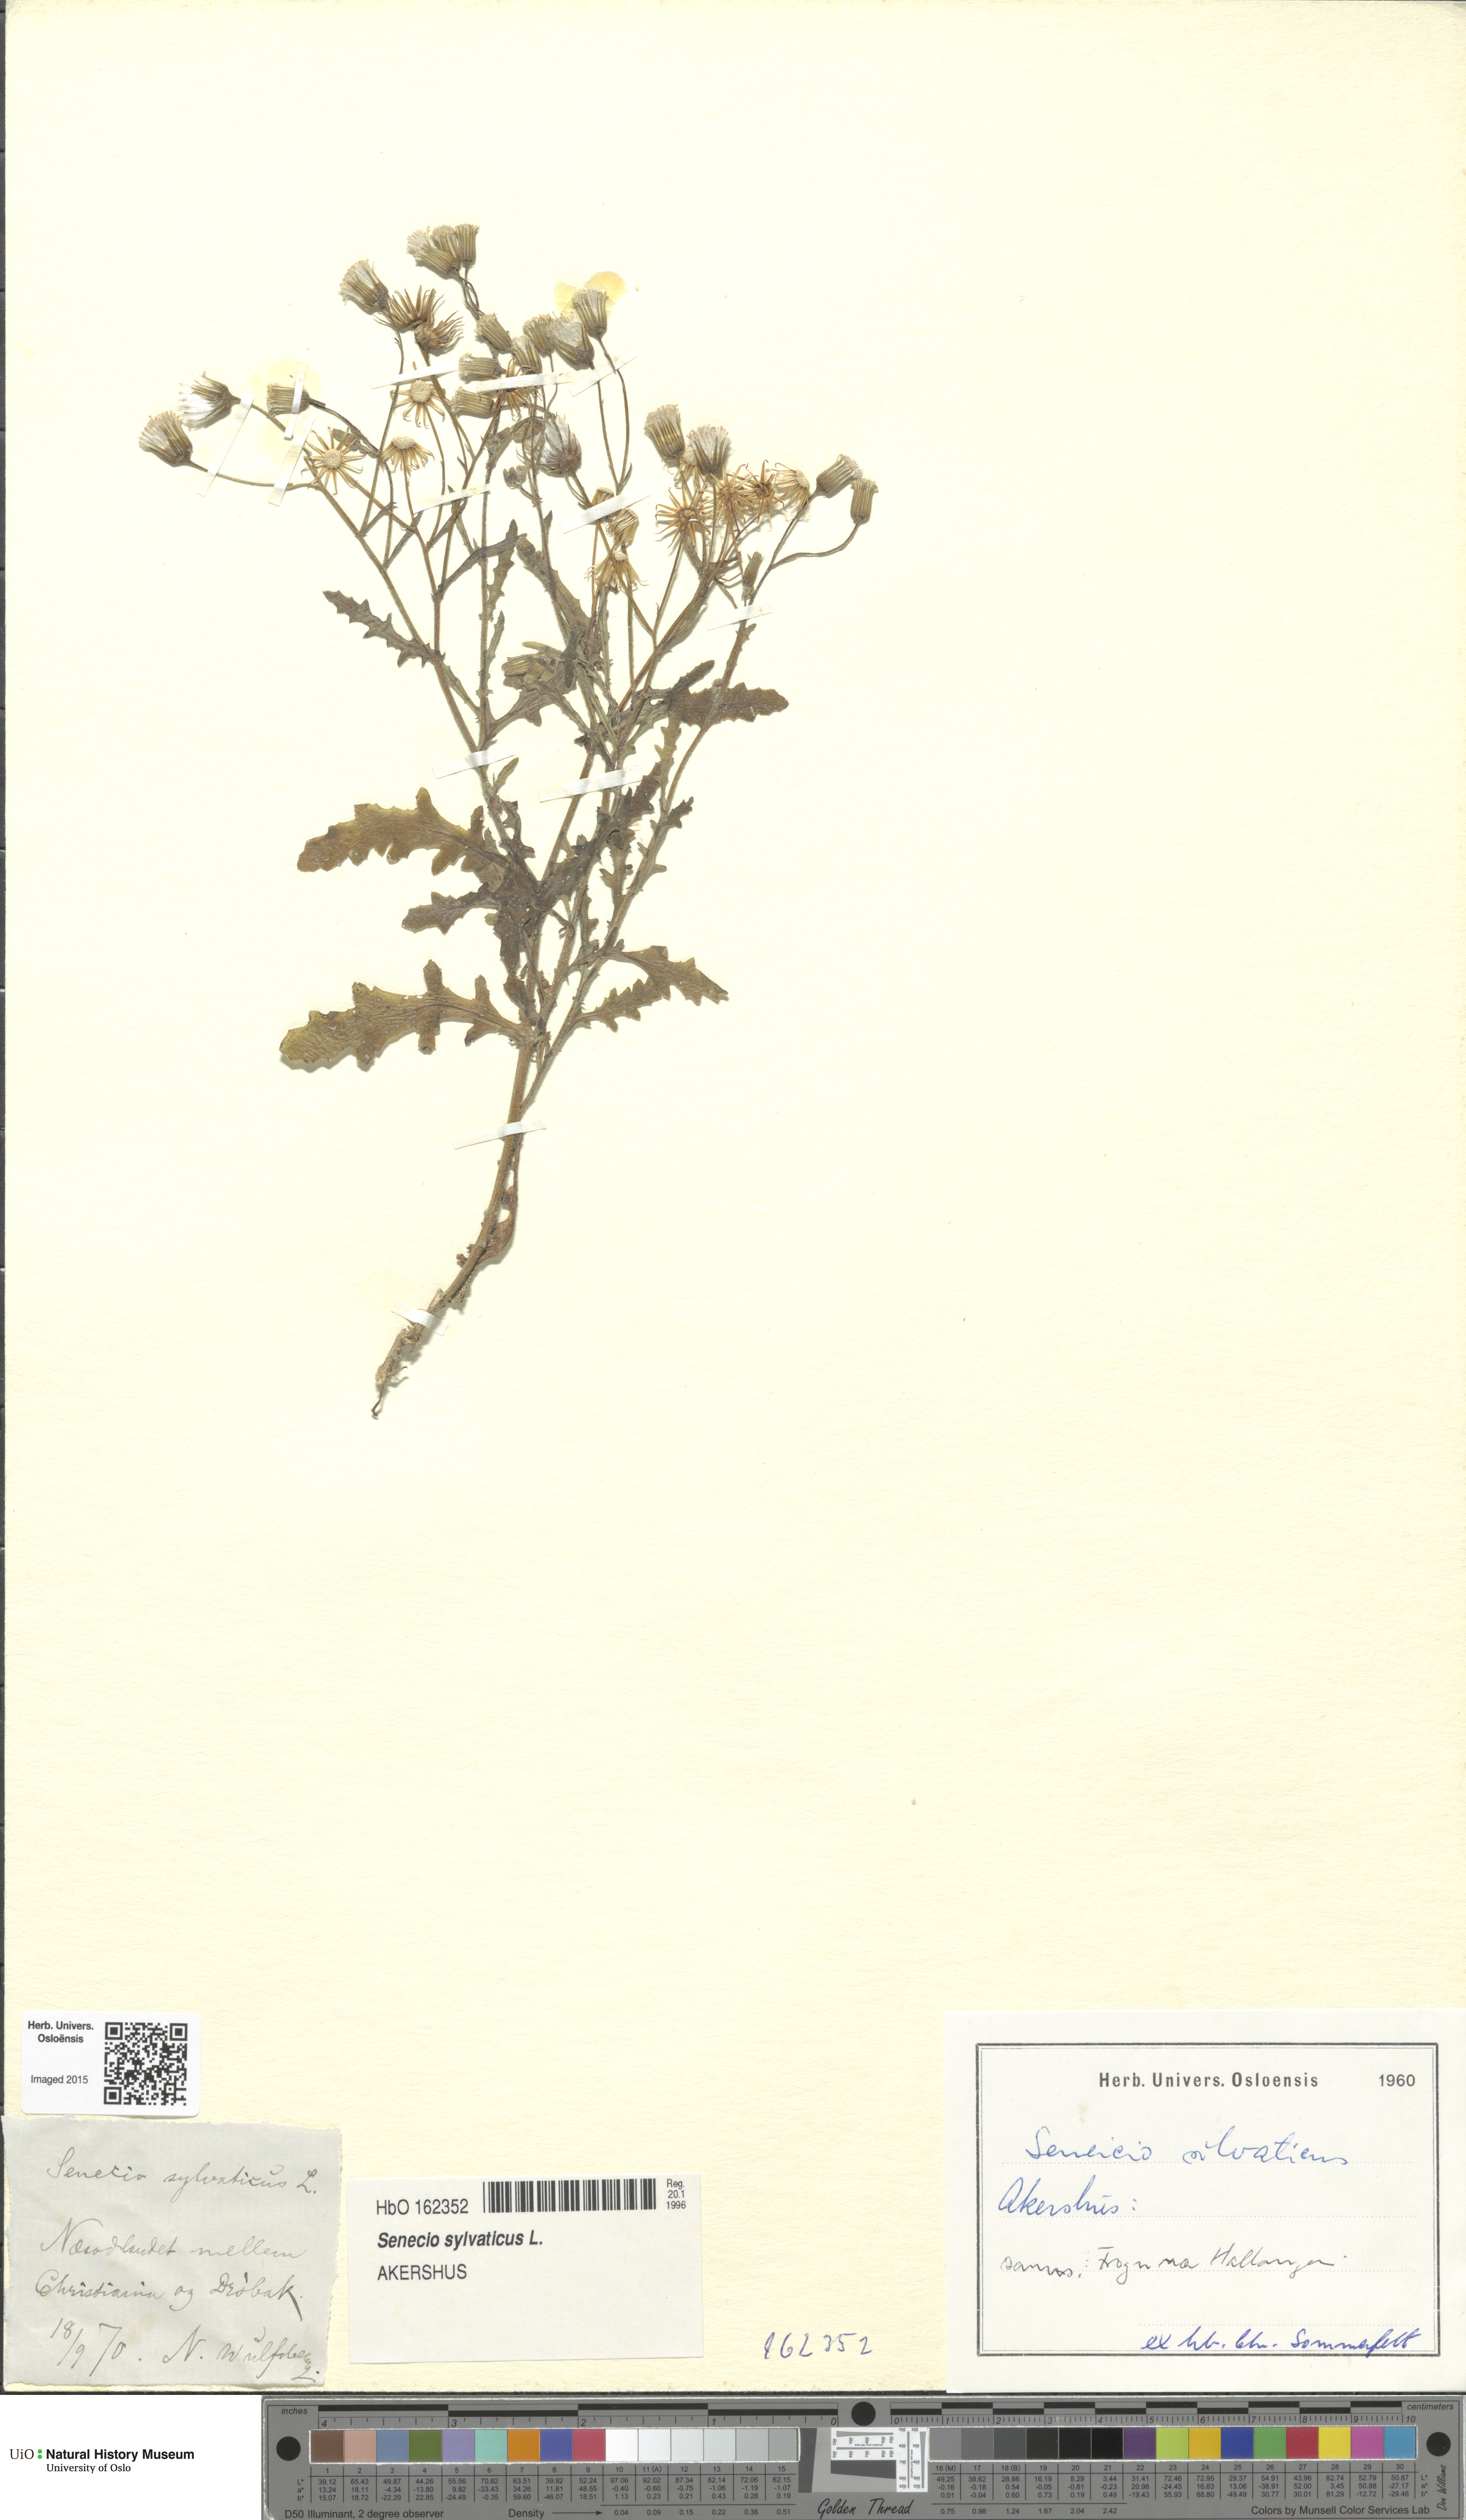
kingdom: Plantae
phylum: Tracheophyta
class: Magnoliopsida
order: Asterales
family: Asteraceae
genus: Senecio
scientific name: Senecio sylvaticus
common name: Woodland ragwort
